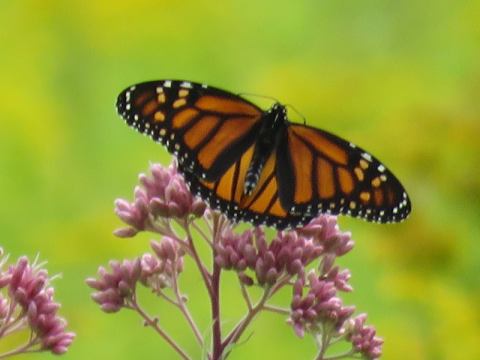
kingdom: Animalia
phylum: Arthropoda
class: Insecta
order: Lepidoptera
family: Nymphalidae
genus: Danaus
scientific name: Danaus plexippus
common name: Monarch
